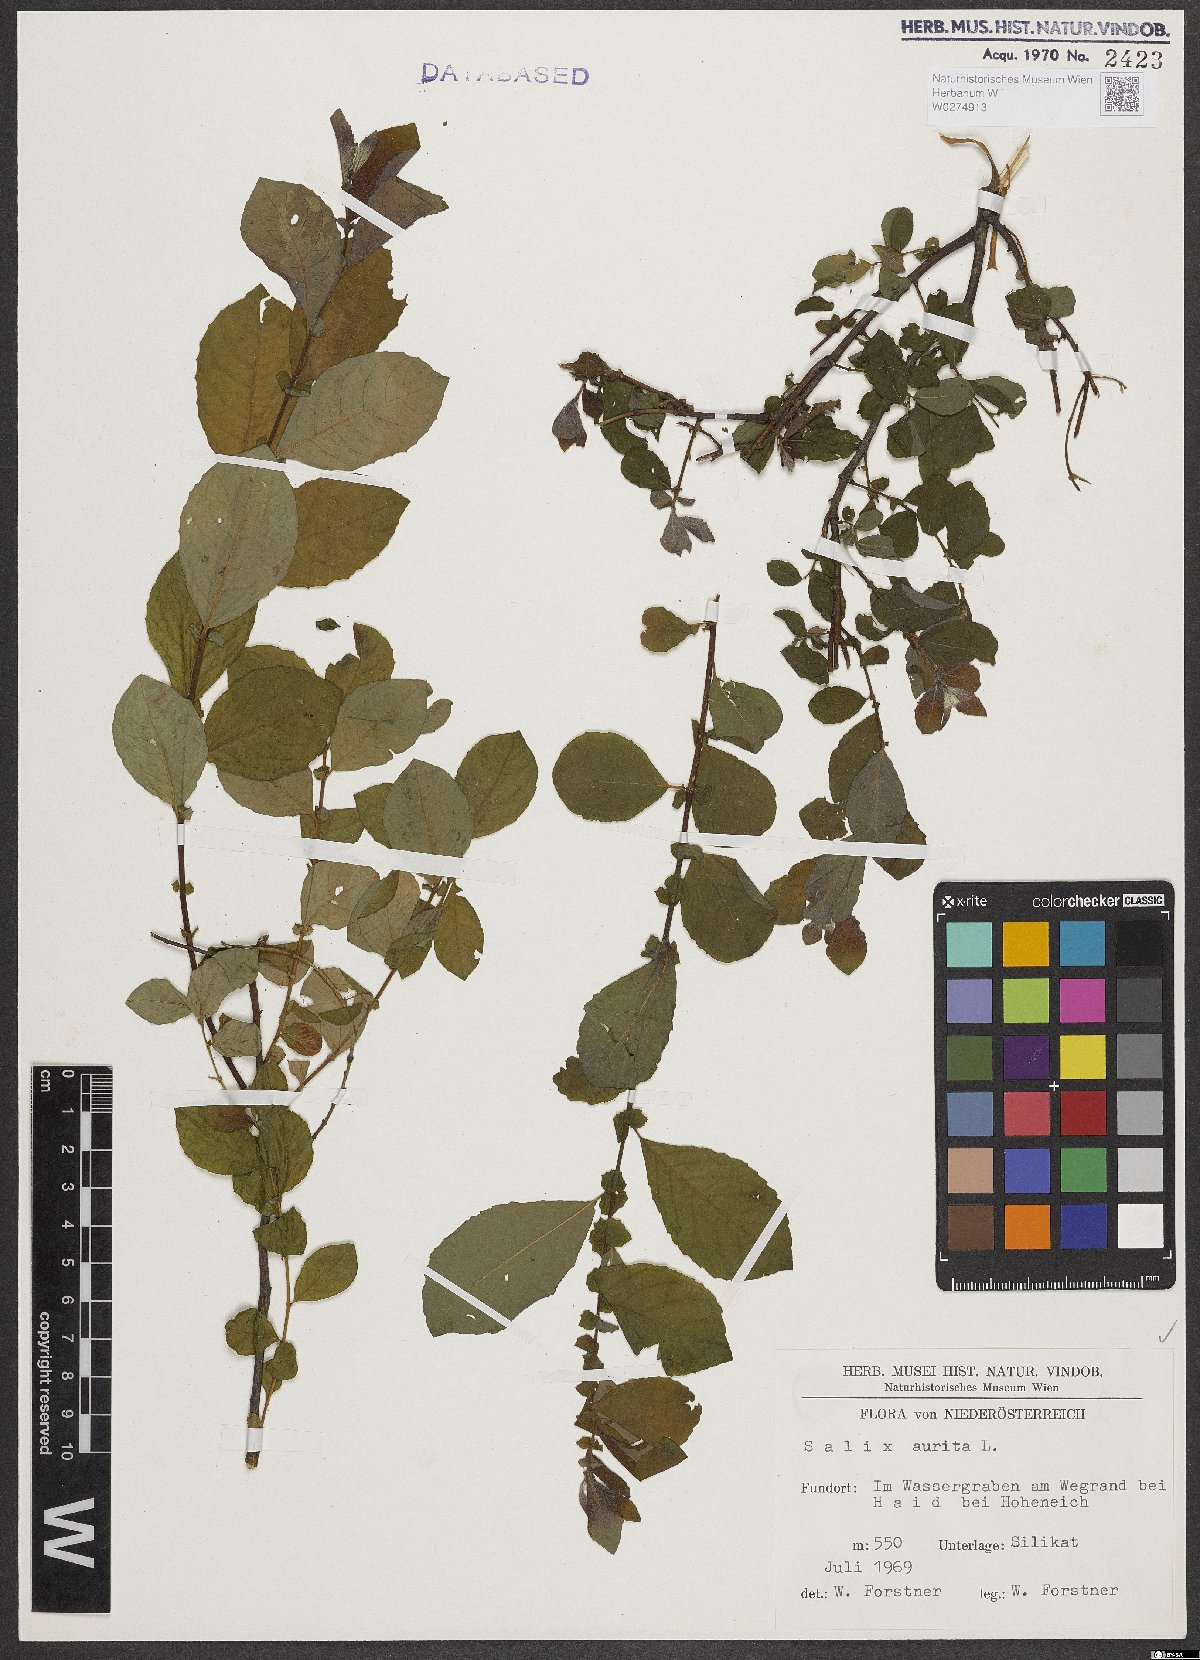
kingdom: Plantae
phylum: Tracheophyta
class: Magnoliopsida
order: Malpighiales
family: Salicaceae
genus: Salix
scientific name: Salix aurita
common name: Eared willow
